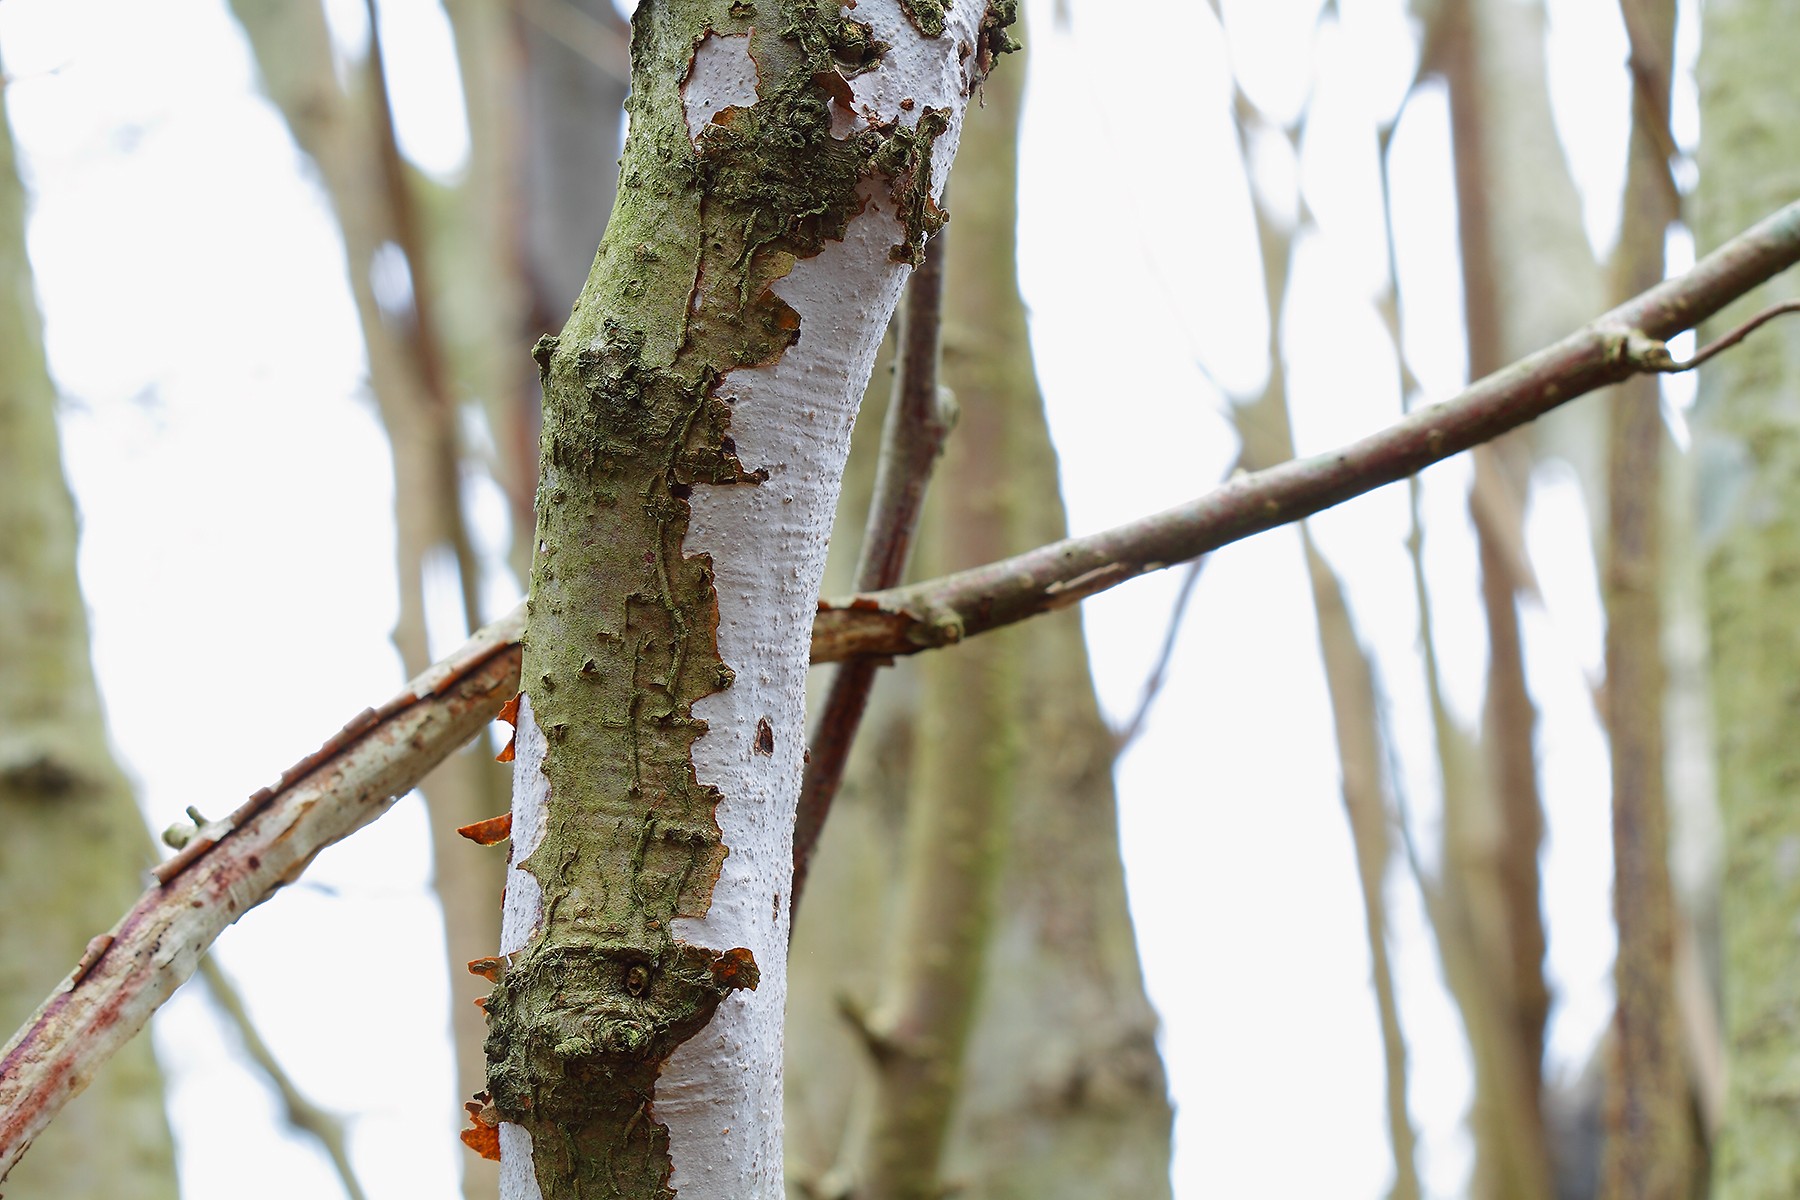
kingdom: Fungi
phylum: Basidiomycota
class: Agaricomycetes
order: Corticiales
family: Vuilleminiaceae
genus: Vuilleminia
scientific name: Vuilleminia coryli
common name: hassel-barksprænger
